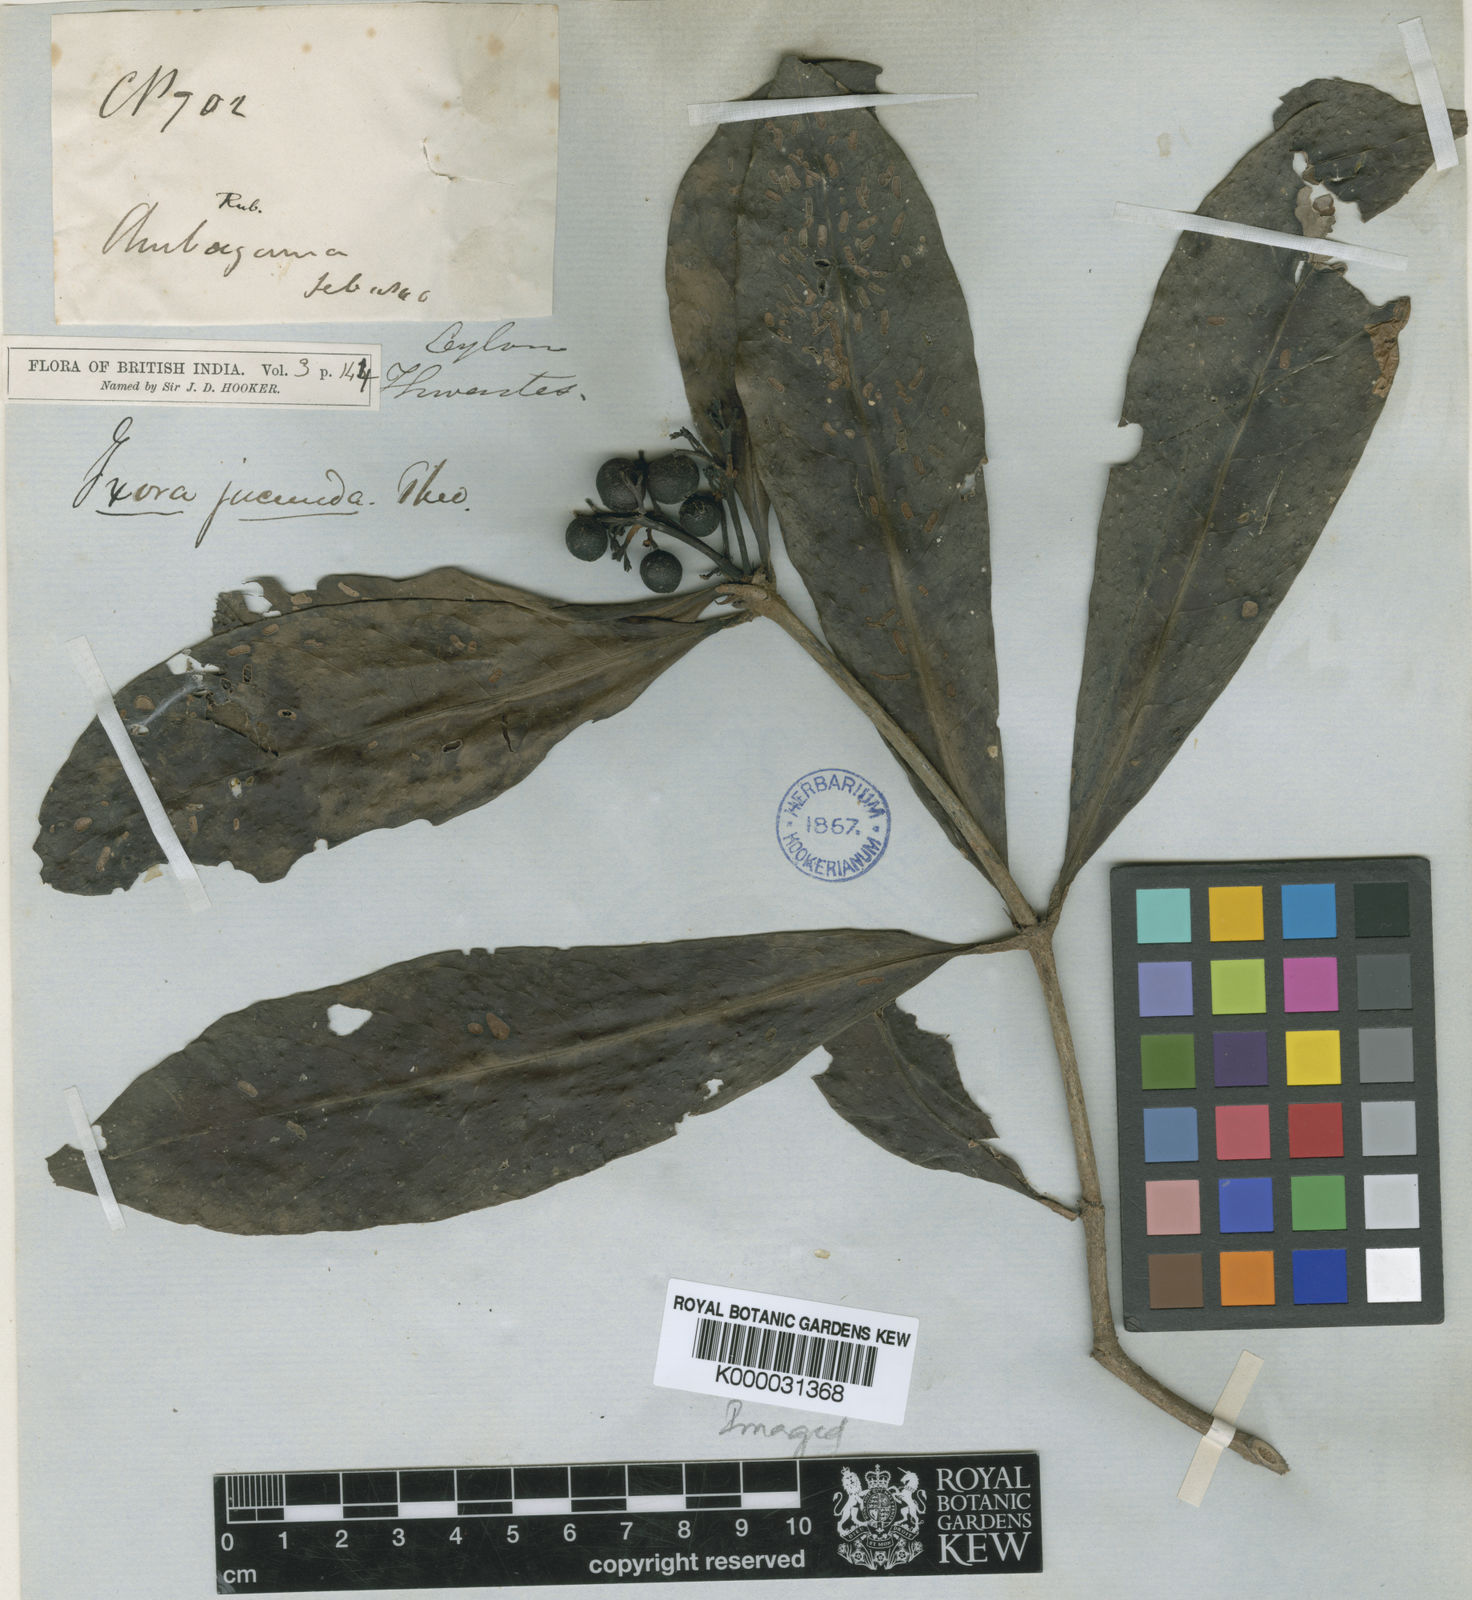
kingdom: Plantae
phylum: Tracheophyta
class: Magnoliopsida
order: Gentianales
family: Rubiaceae
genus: Ixora
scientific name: Ixora jucunda
